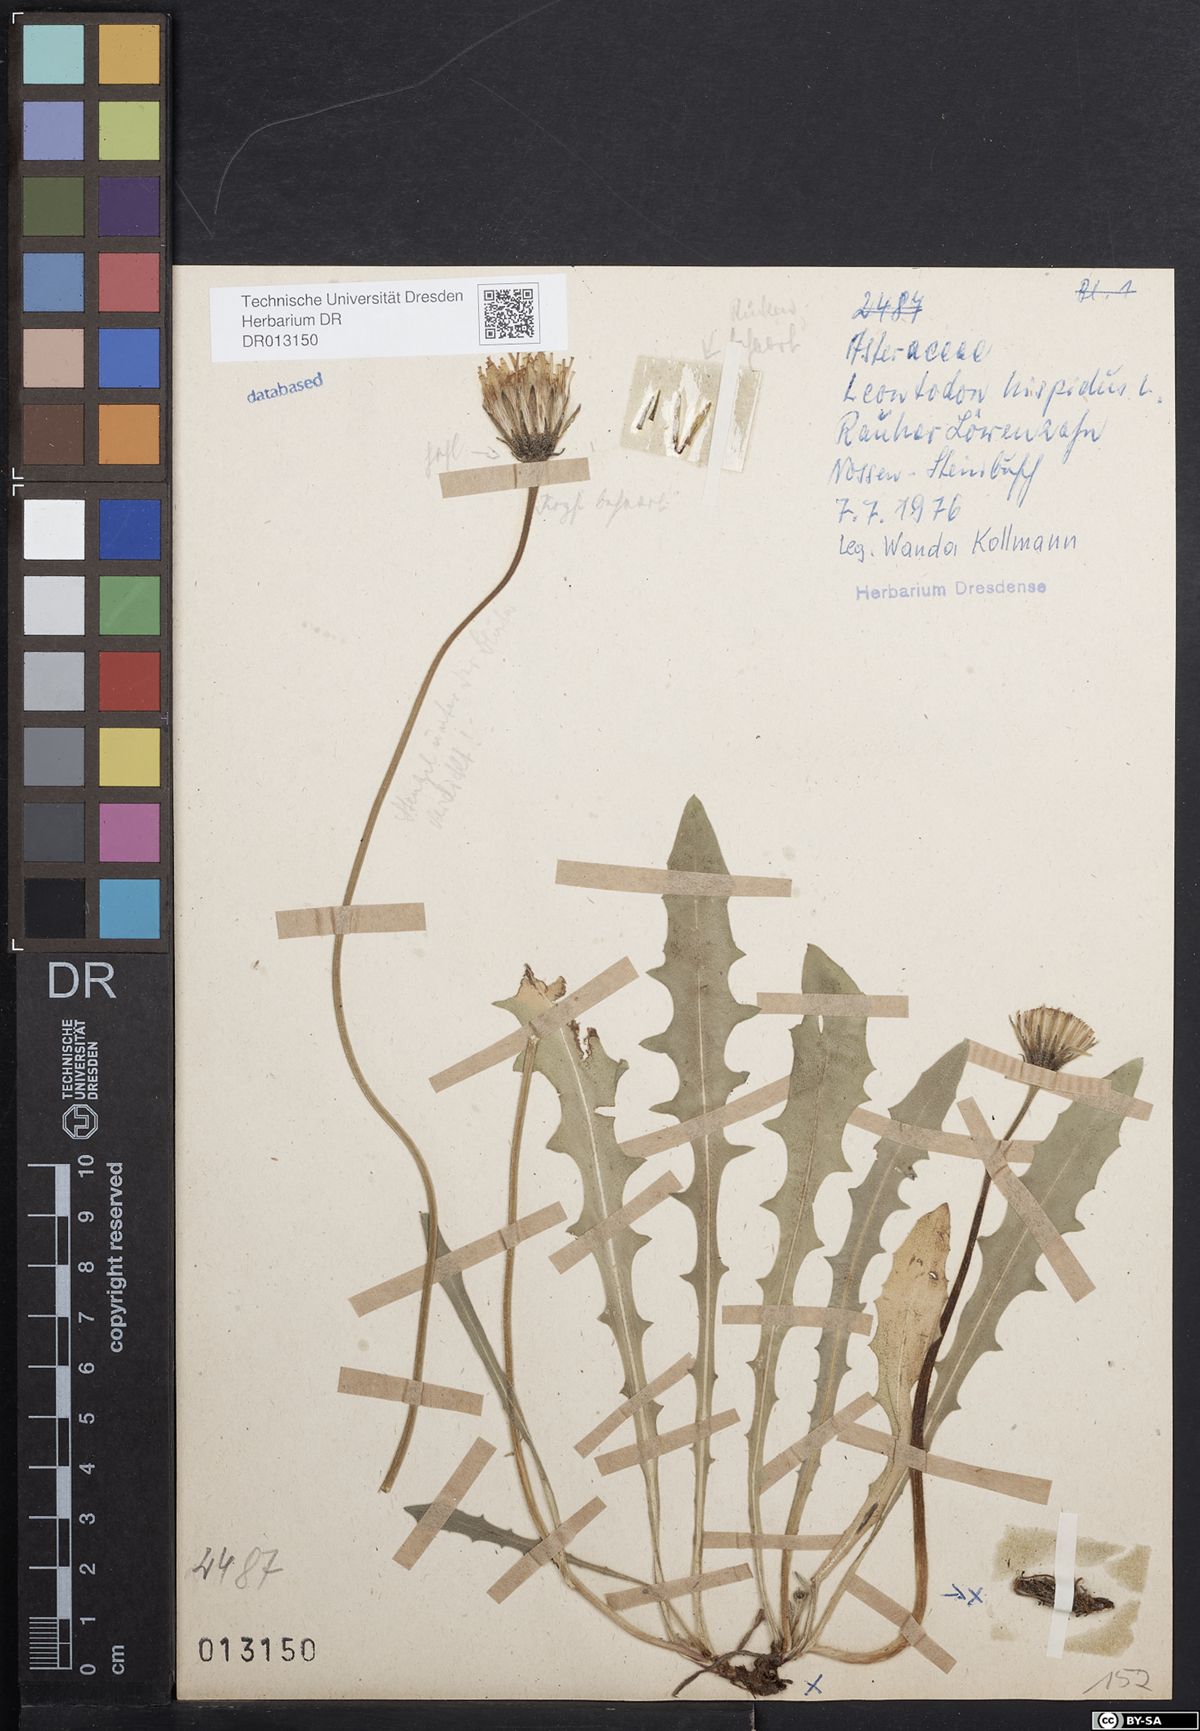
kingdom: Plantae
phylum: Tracheophyta
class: Magnoliopsida
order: Asterales
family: Asteraceae
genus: Leontodon
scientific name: Leontodon hispidus
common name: Rough hawkbit
